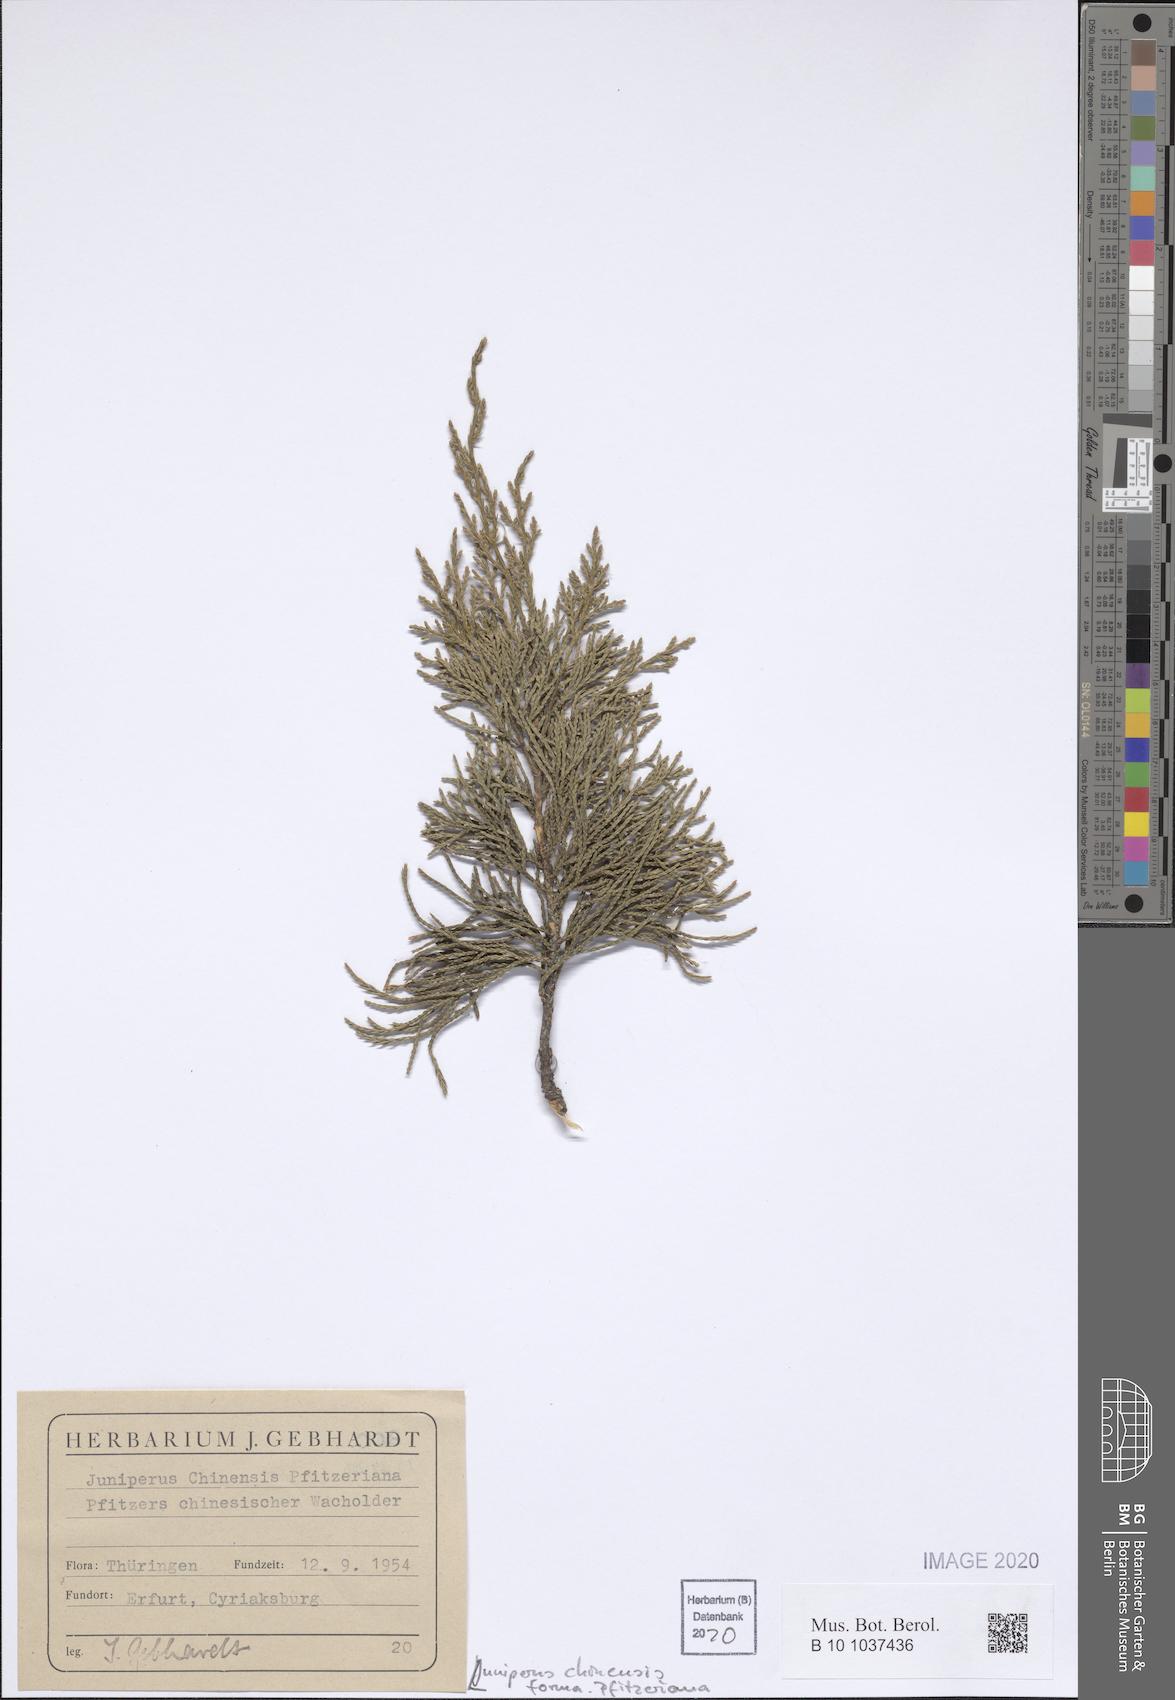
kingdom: Plantae
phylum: Tracheophyta
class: Pinopsida
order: Pinales
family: Cupressaceae
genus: Juniperus
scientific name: Juniperus pfitzeriana
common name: Pfitzer juniper
